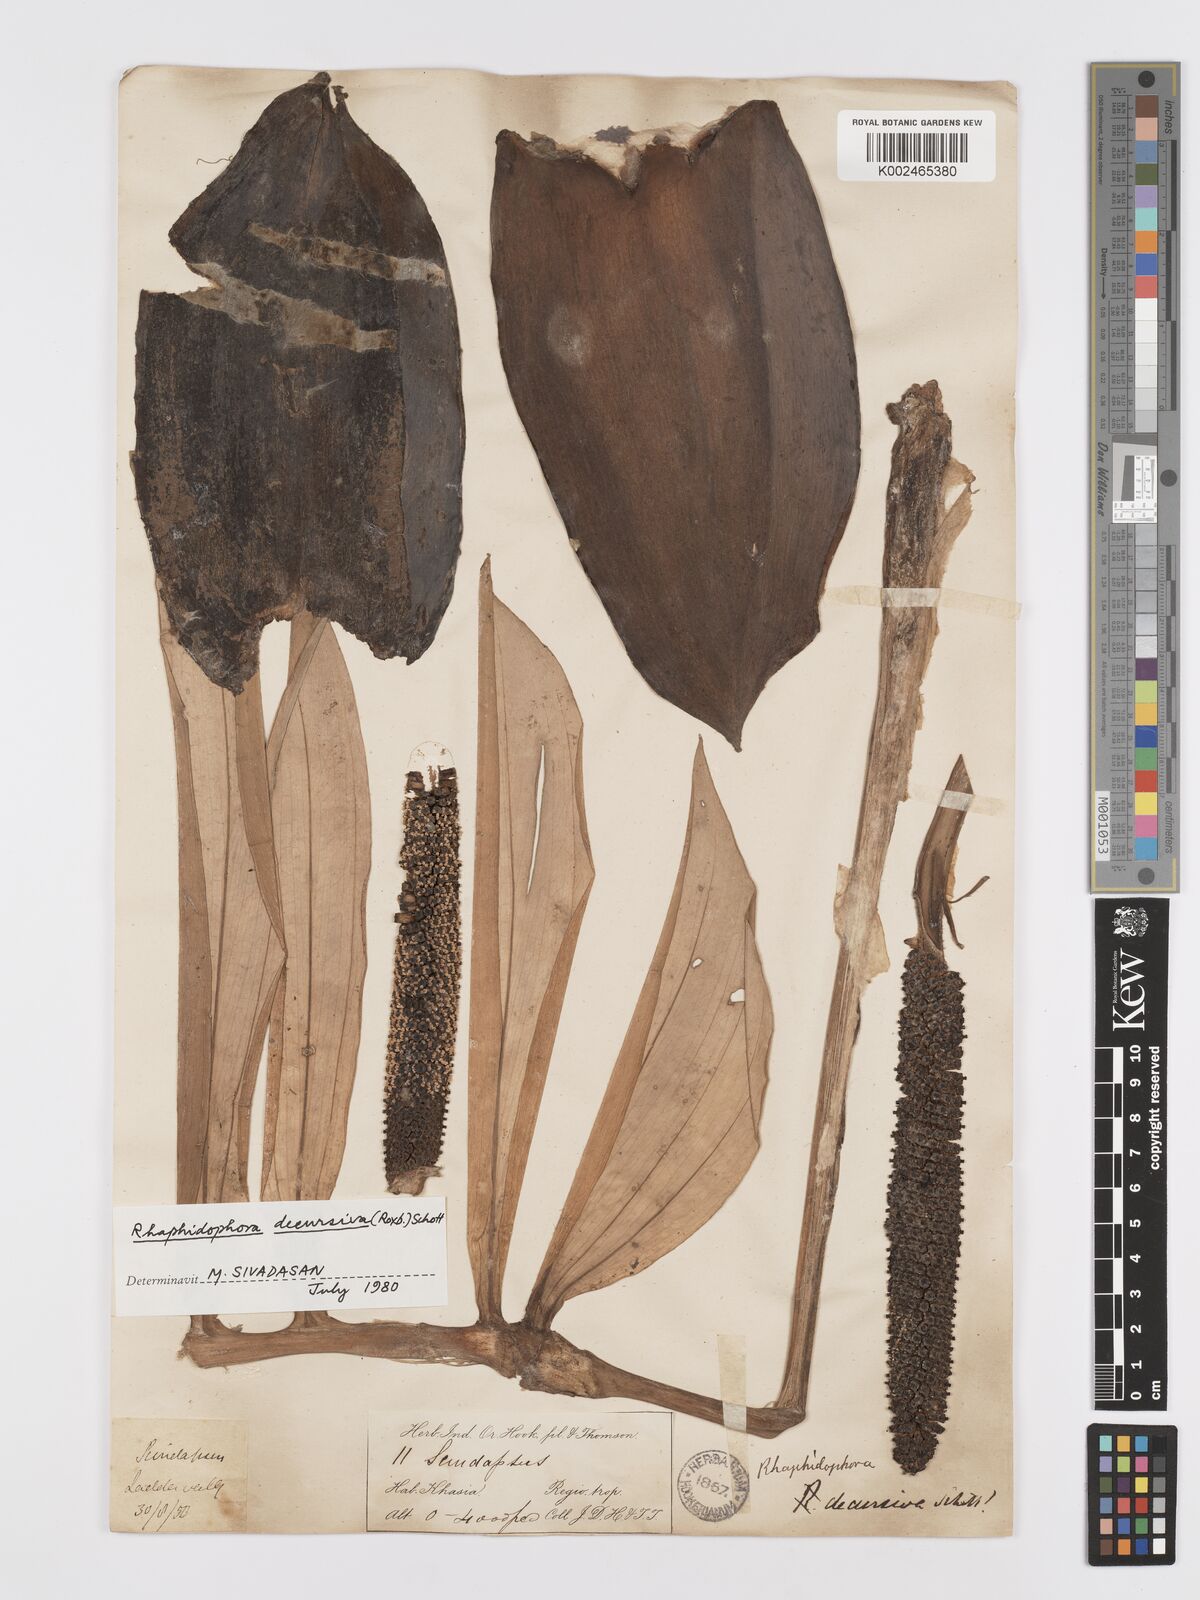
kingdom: Plantae
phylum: Tracheophyta
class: Liliopsida
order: Alismatales
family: Araceae
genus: Rhaphidophora
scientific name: Rhaphidophora decursiva
